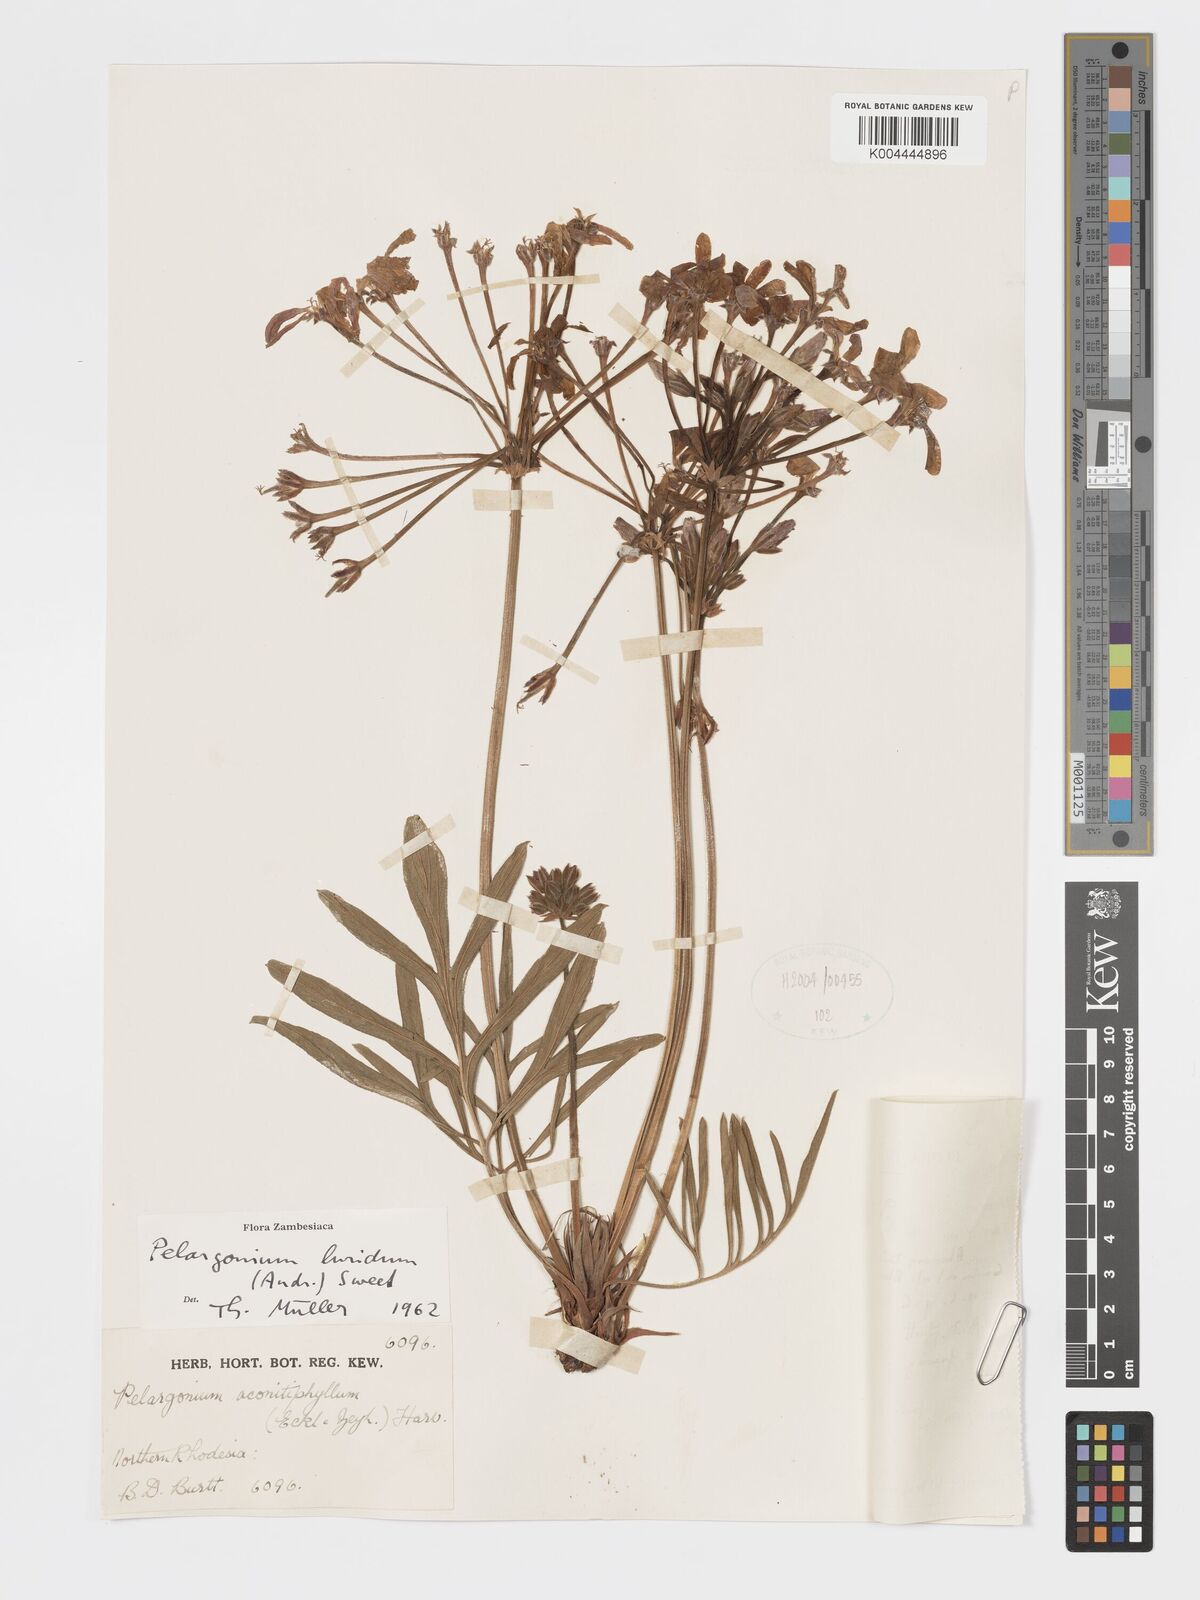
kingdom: Plantae
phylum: Tracheophyta
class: Magnoliopsida
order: Geraniales
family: Geraniaceae
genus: Pelargonium
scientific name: Pelargonium luridum
